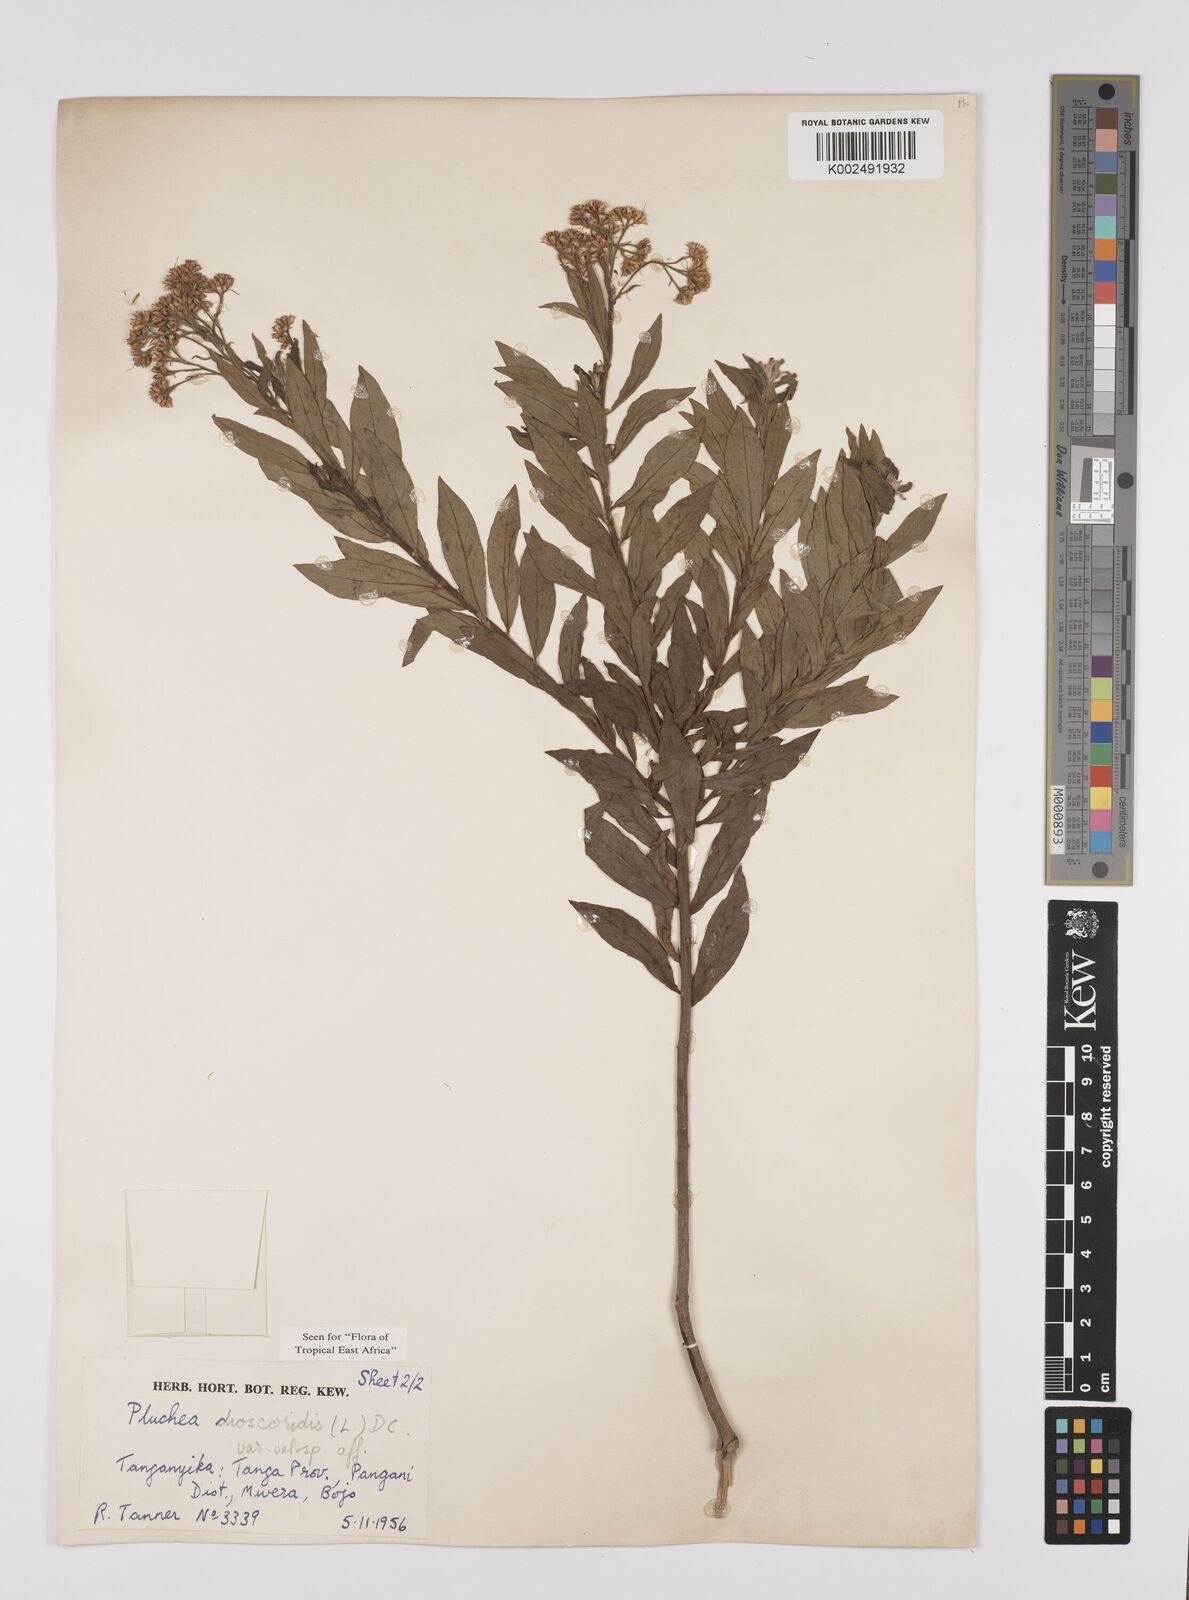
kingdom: Plantae
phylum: Tracheophyta
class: Magnoliopsida
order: Asterales
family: Asteraceae
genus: Pluchea
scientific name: Pluchea dioscoridis
